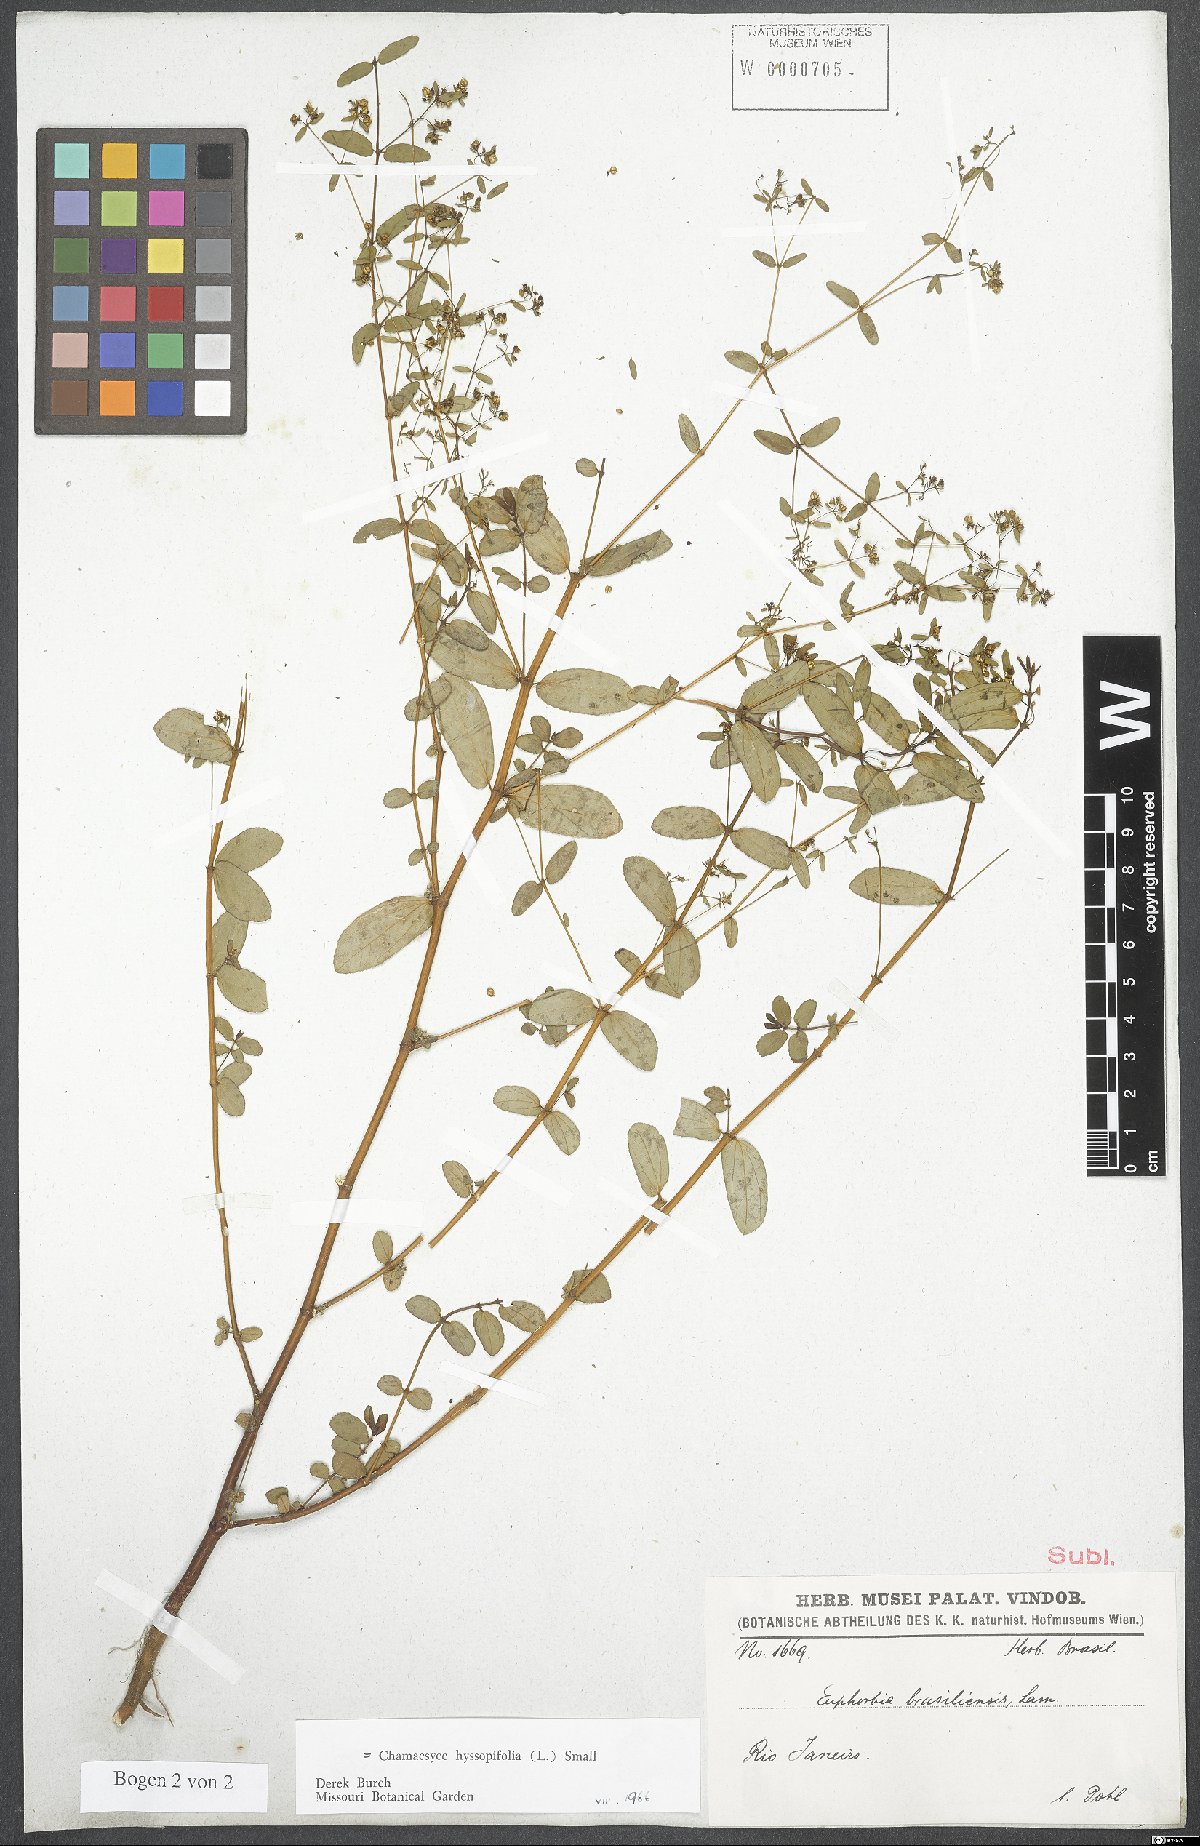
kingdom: Plantae
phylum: Tracheophyta
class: Magnoliopsida
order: Malpighiales
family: Euphorbiaceae
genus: Euphorbia
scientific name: Euphorbia hyssopifolia
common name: Hyssopleaf sandmat
